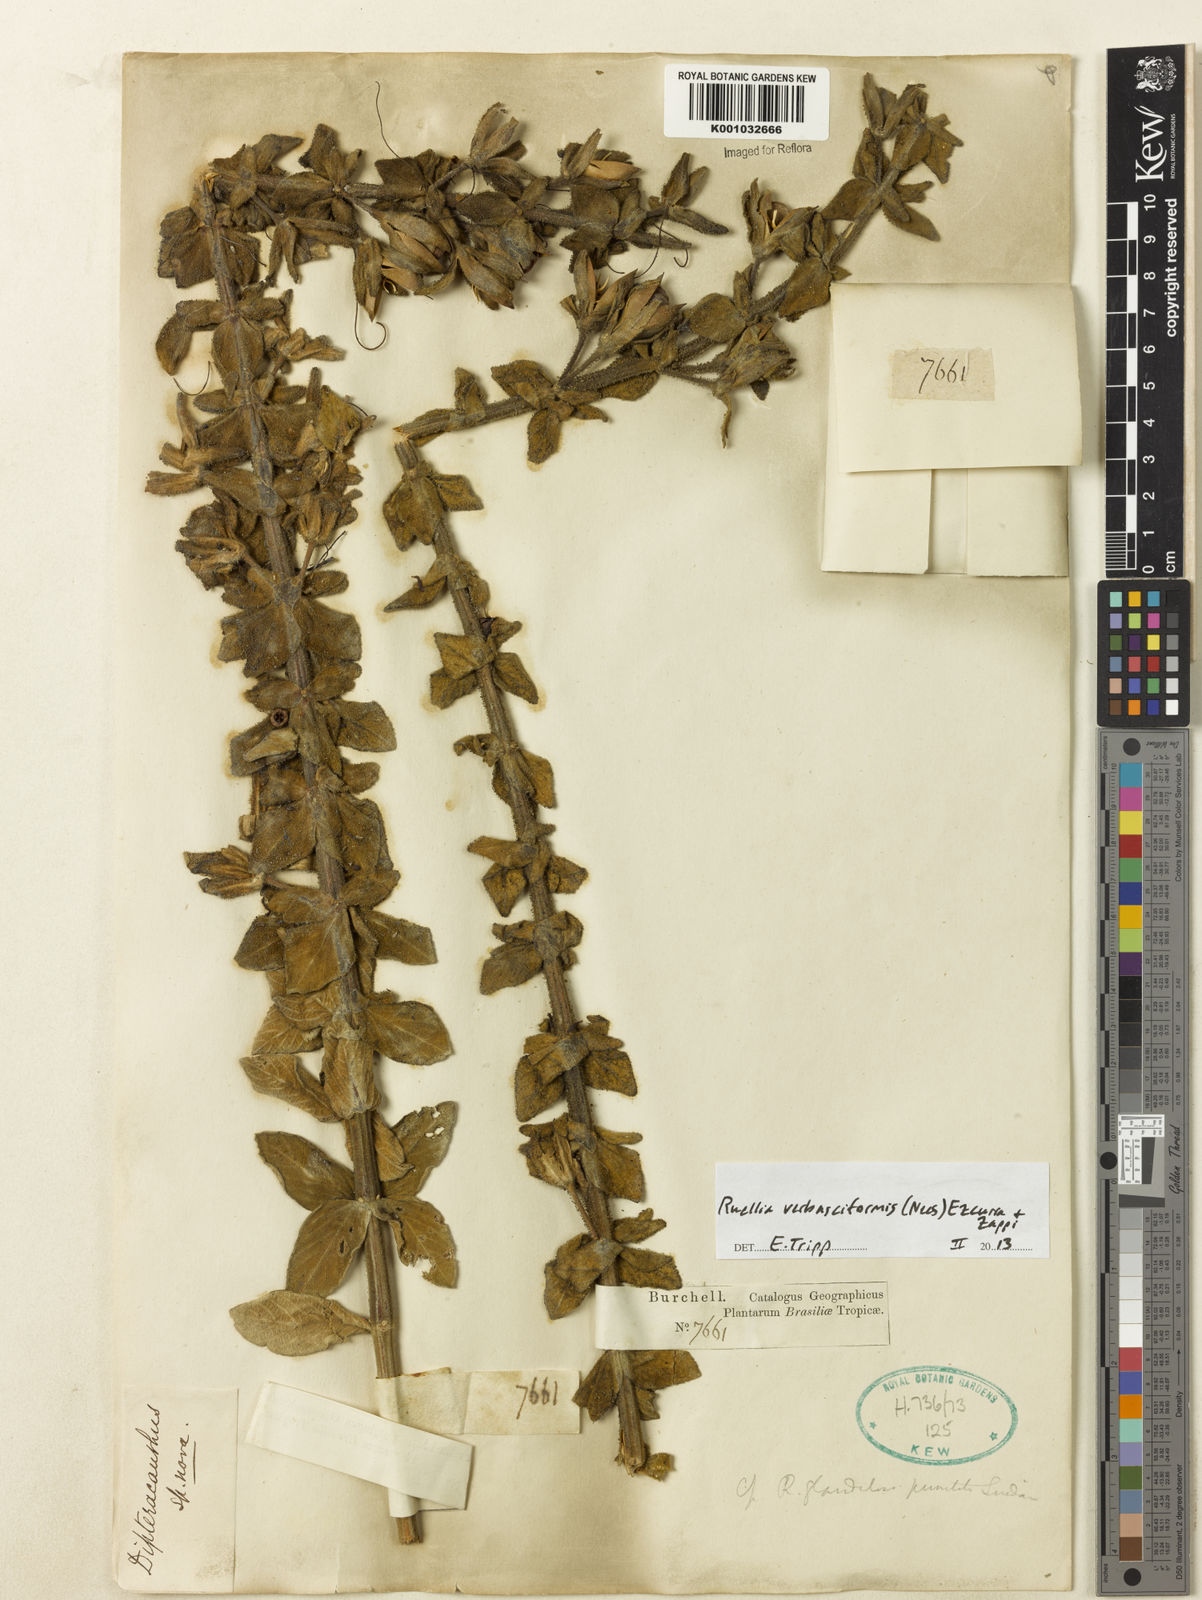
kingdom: Plantae
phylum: Tracheophyta
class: Magnoliopsida
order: Lamiales
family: Acanthaceae
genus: Ruellia
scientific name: Ruellia verbasciformis
